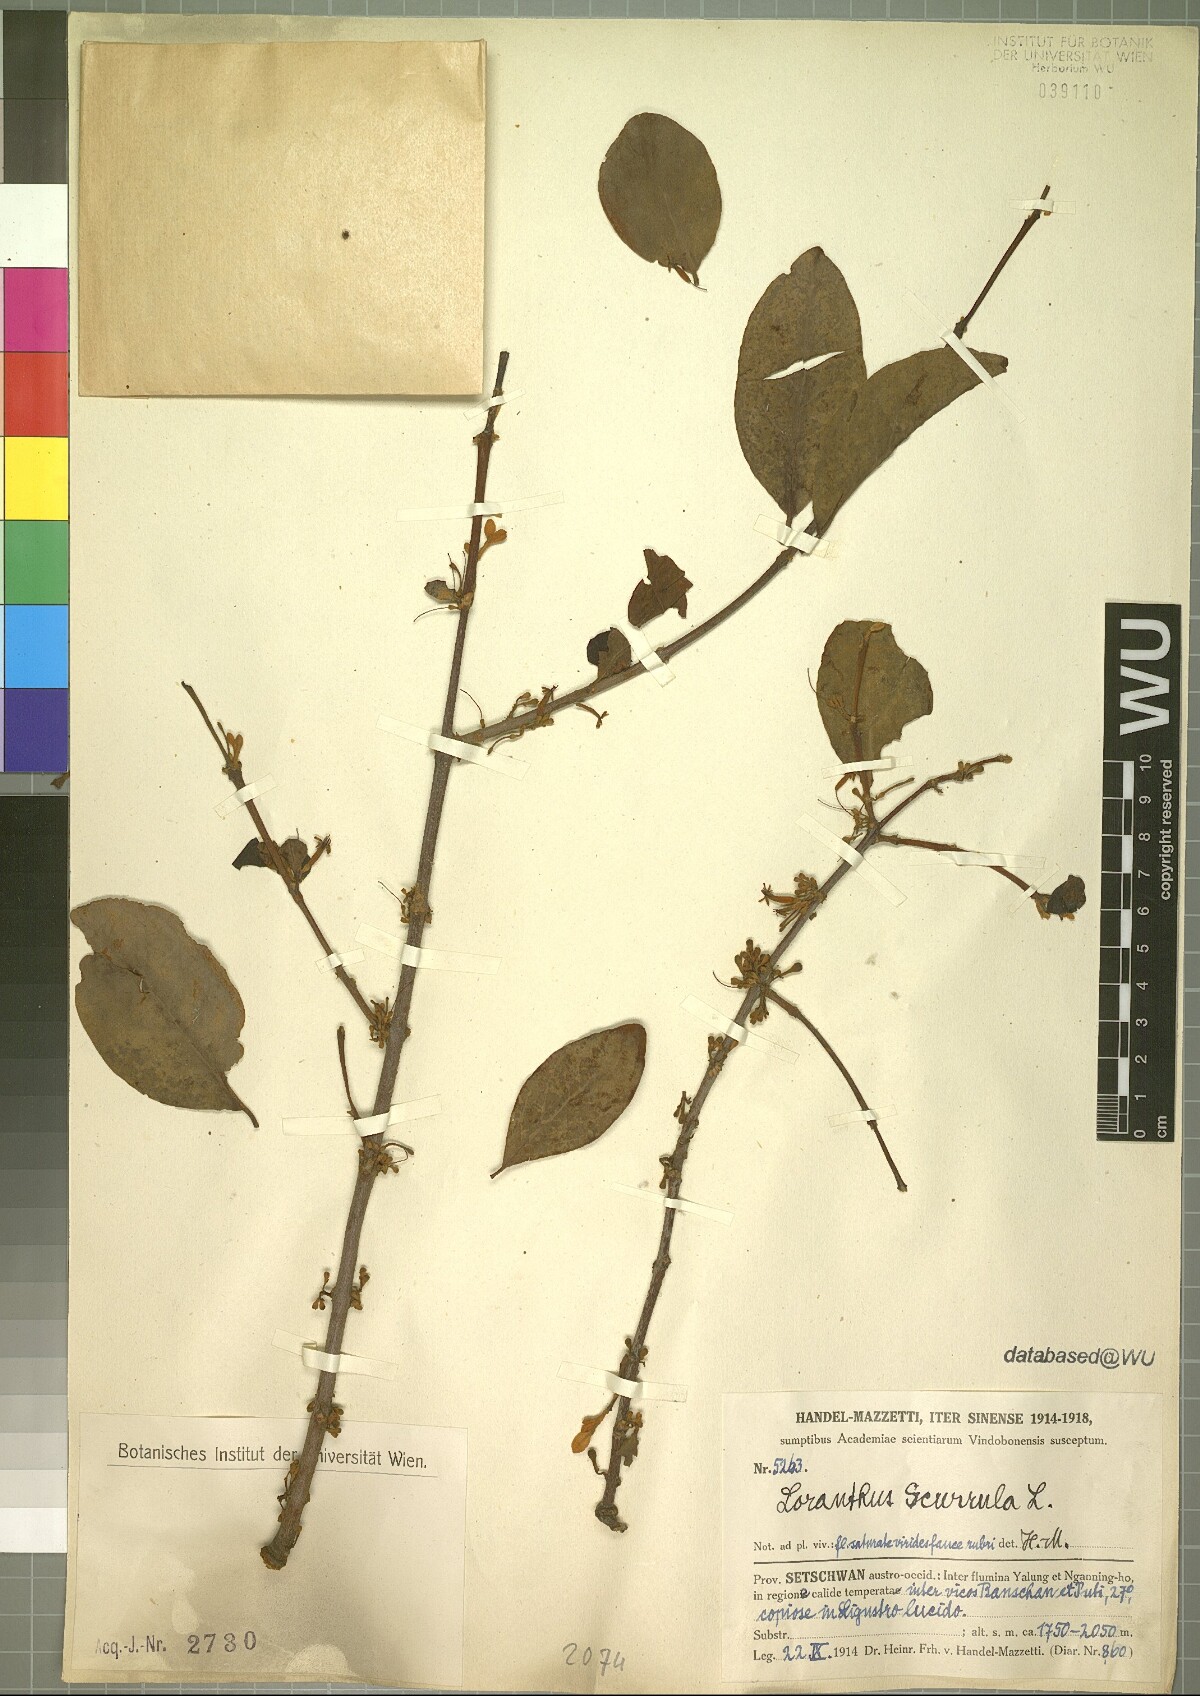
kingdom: Plantae
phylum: Tracheophyta
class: Magnoliopsida
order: Santalales
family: Loranthaceae
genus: Scurrula
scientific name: Scurrula parasitica
